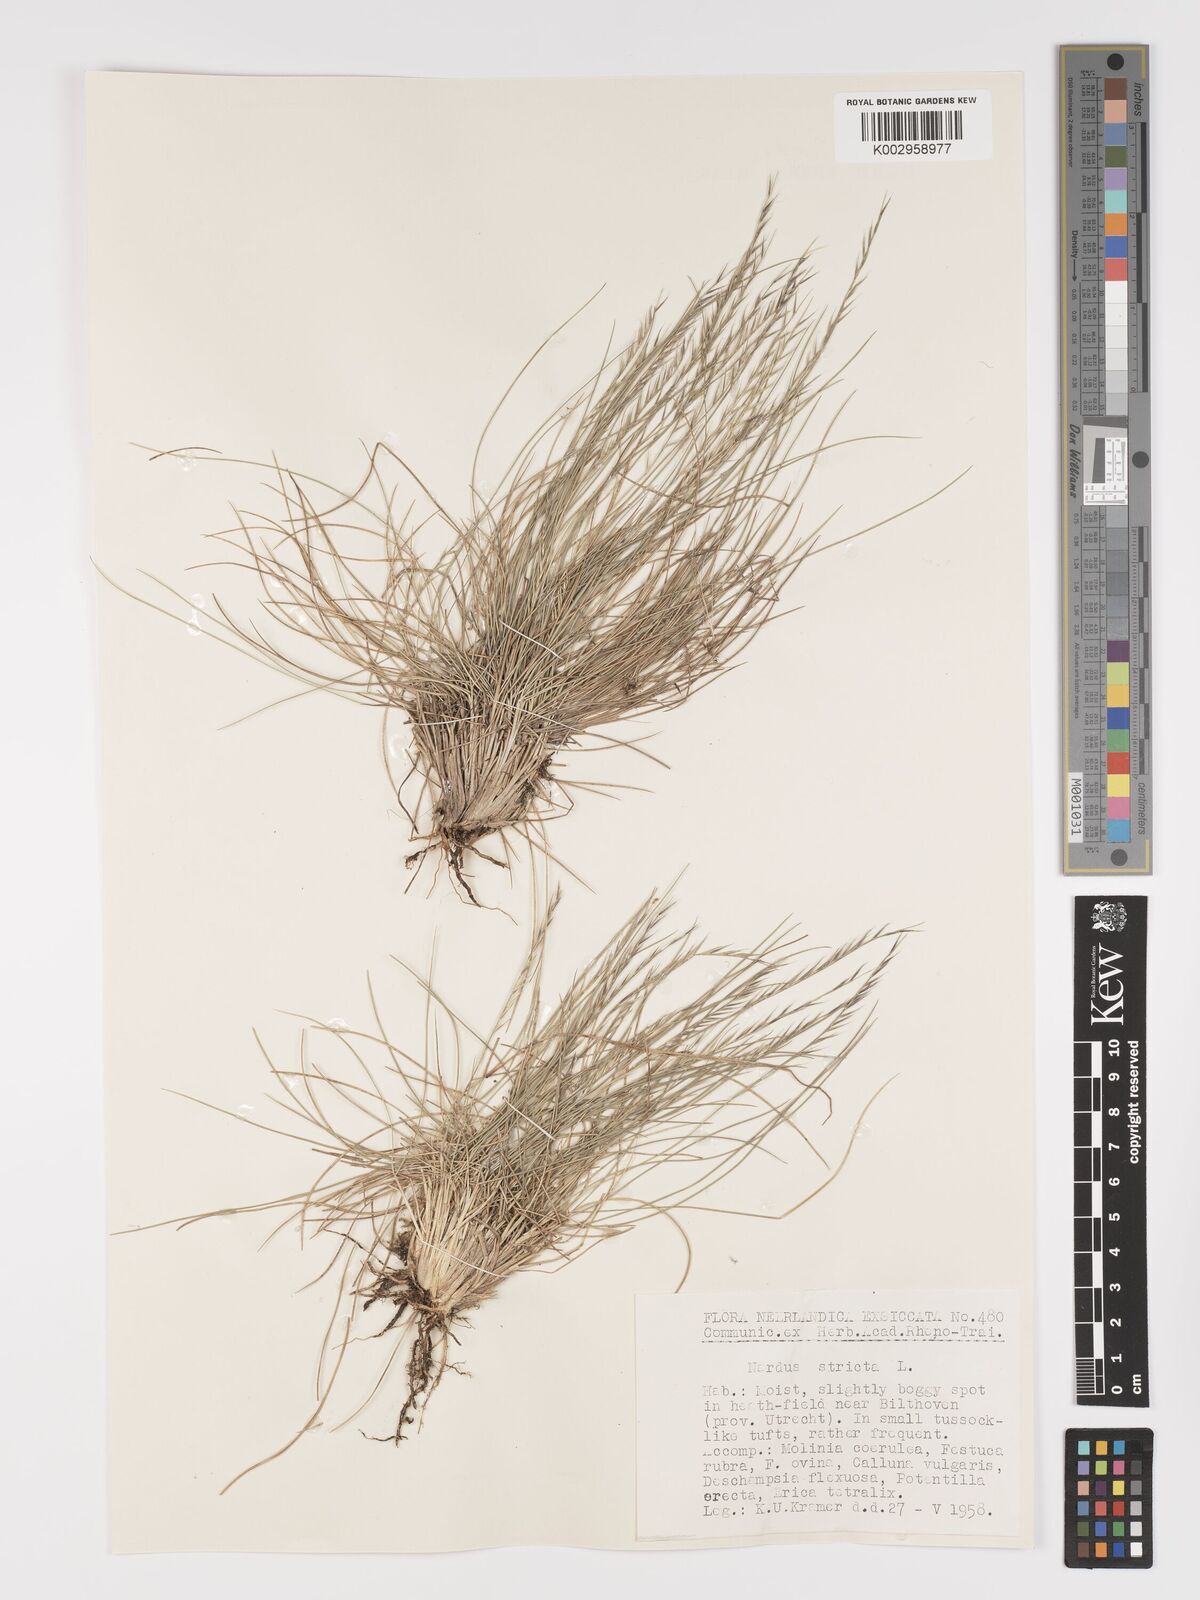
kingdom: Plantae
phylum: Tracheophyta
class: Liliopsida
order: Poales
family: Poaceae
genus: Nardus
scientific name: Nardus stricta
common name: Mat-grass
